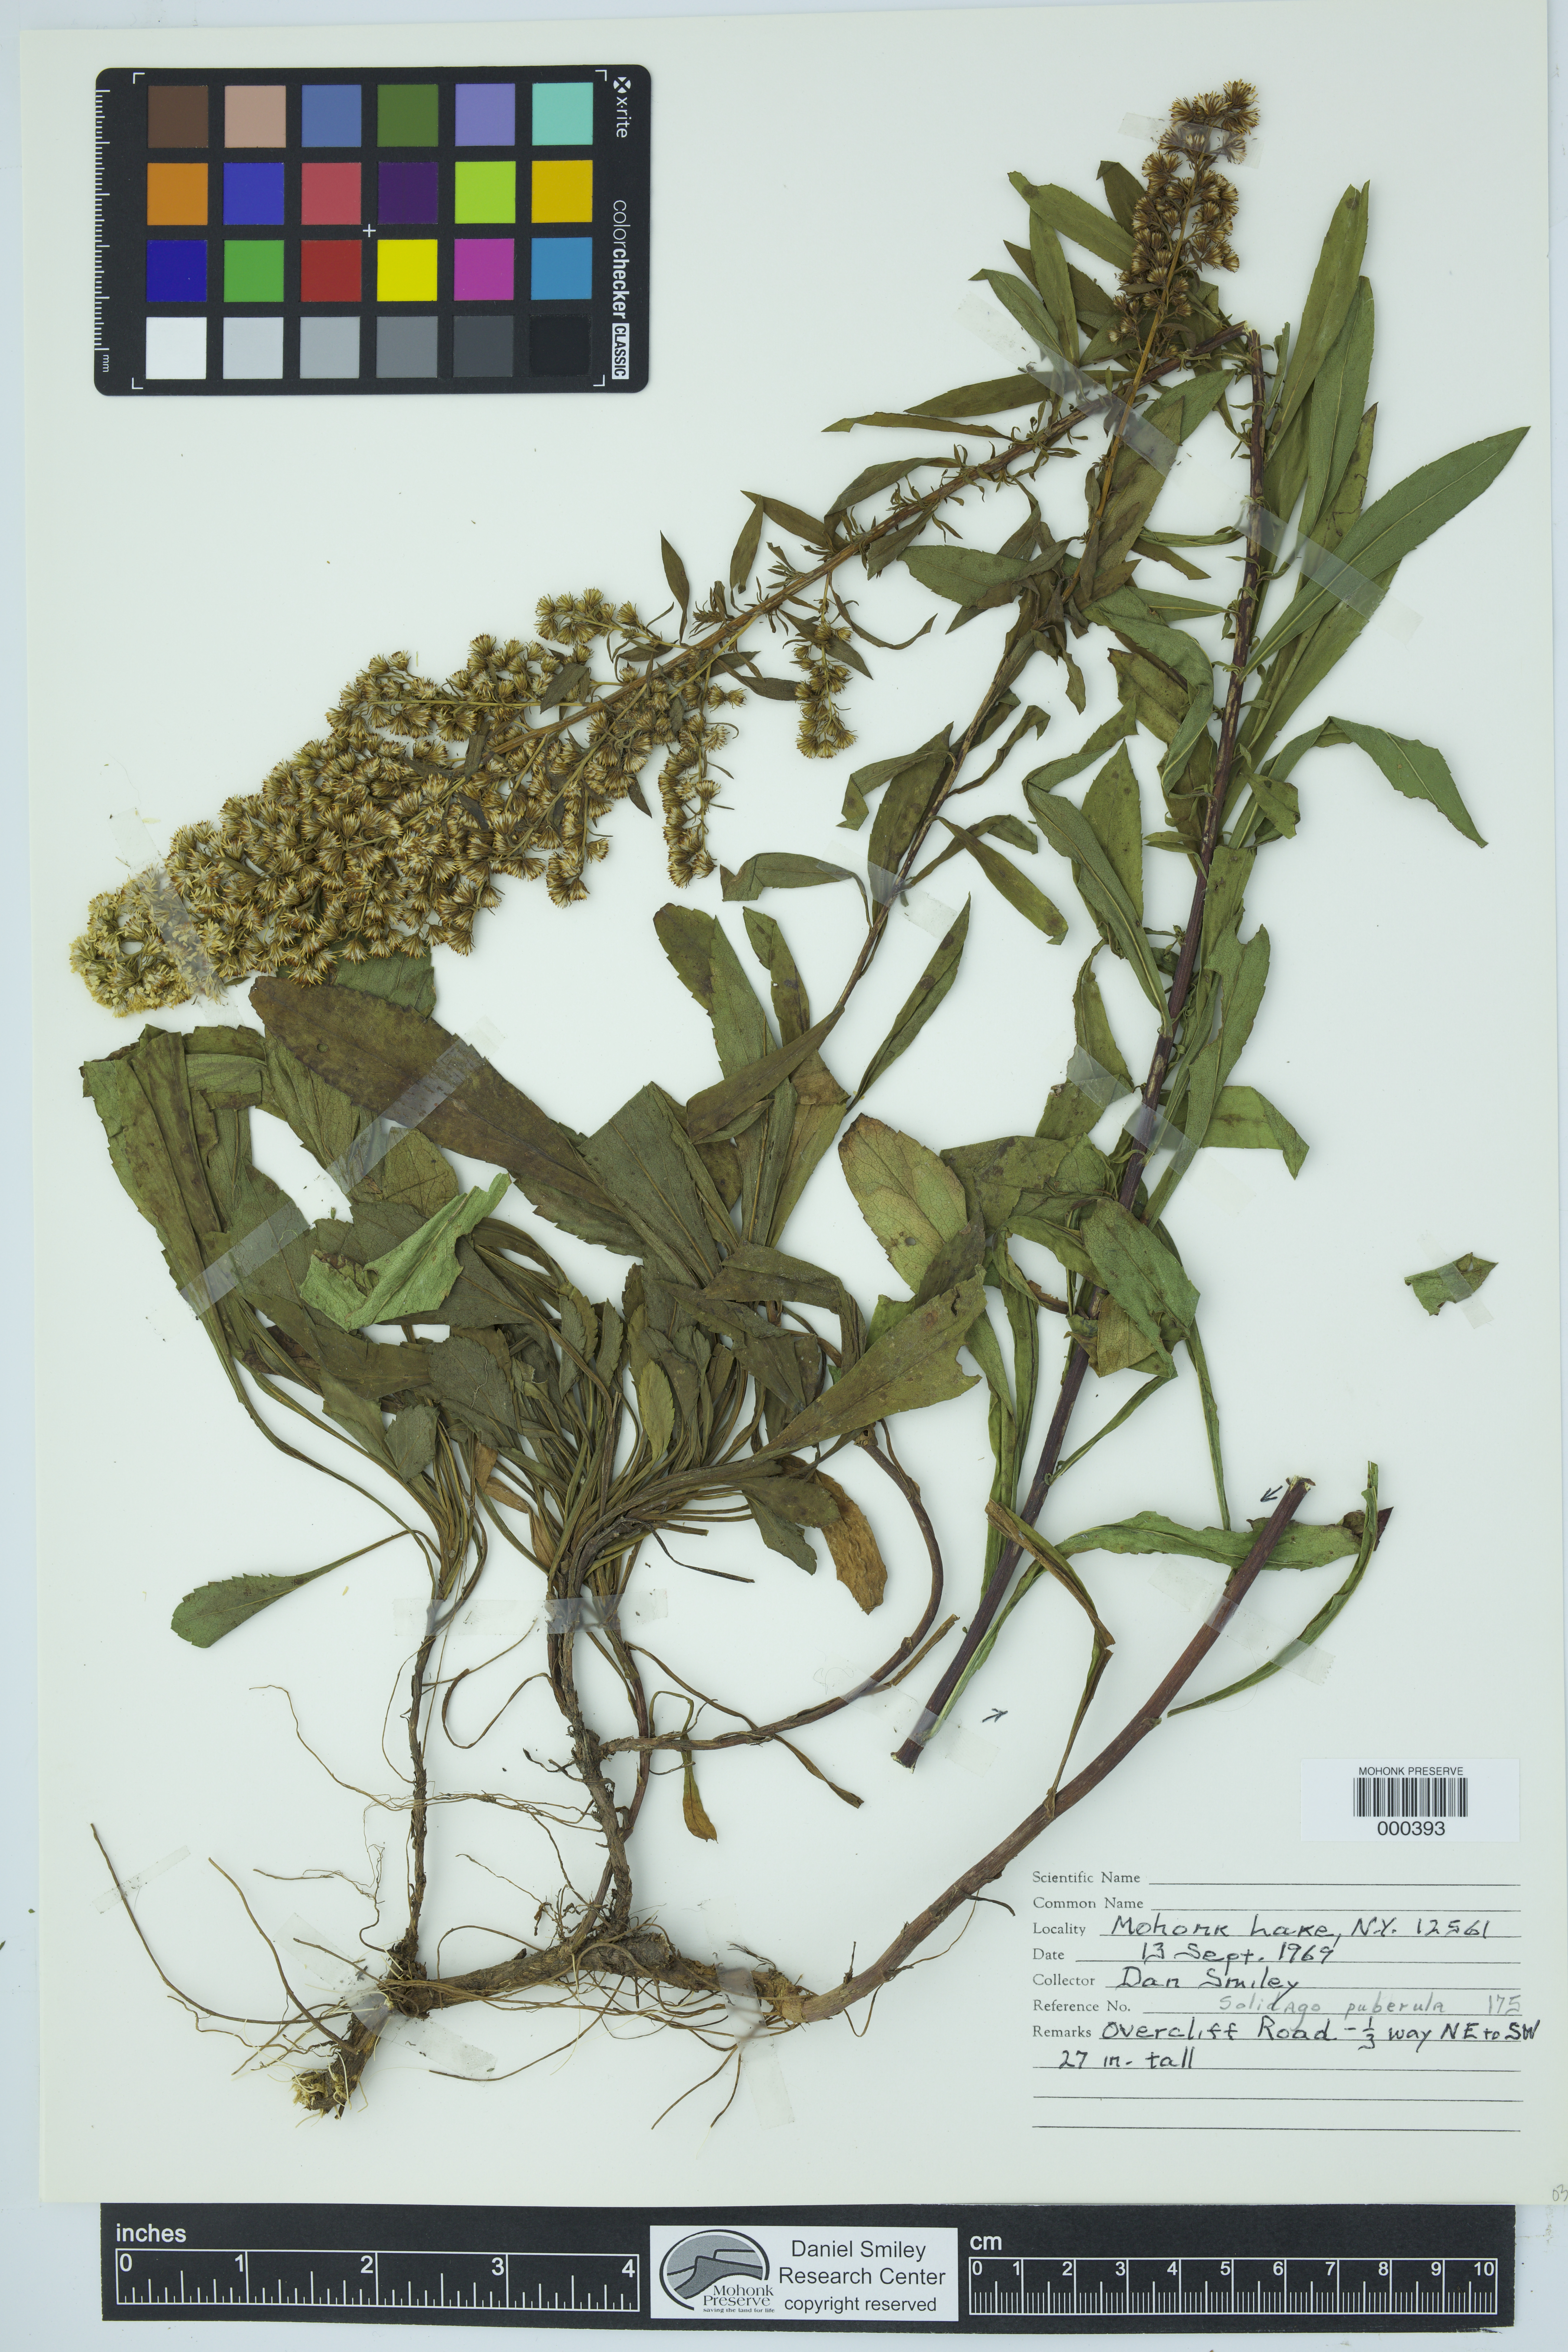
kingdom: Plantae
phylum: Tracheophyta
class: Magnoliopsida
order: Asterales
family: Asteraceae
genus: Solidago
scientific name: Solidago puberula
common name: Downy goldenrod
